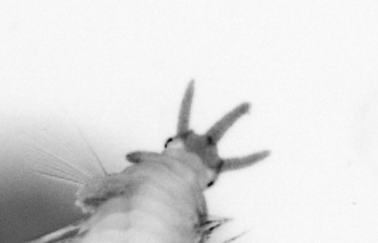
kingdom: Animalia
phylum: Annelida
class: Polychaeta
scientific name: Polychaeta
